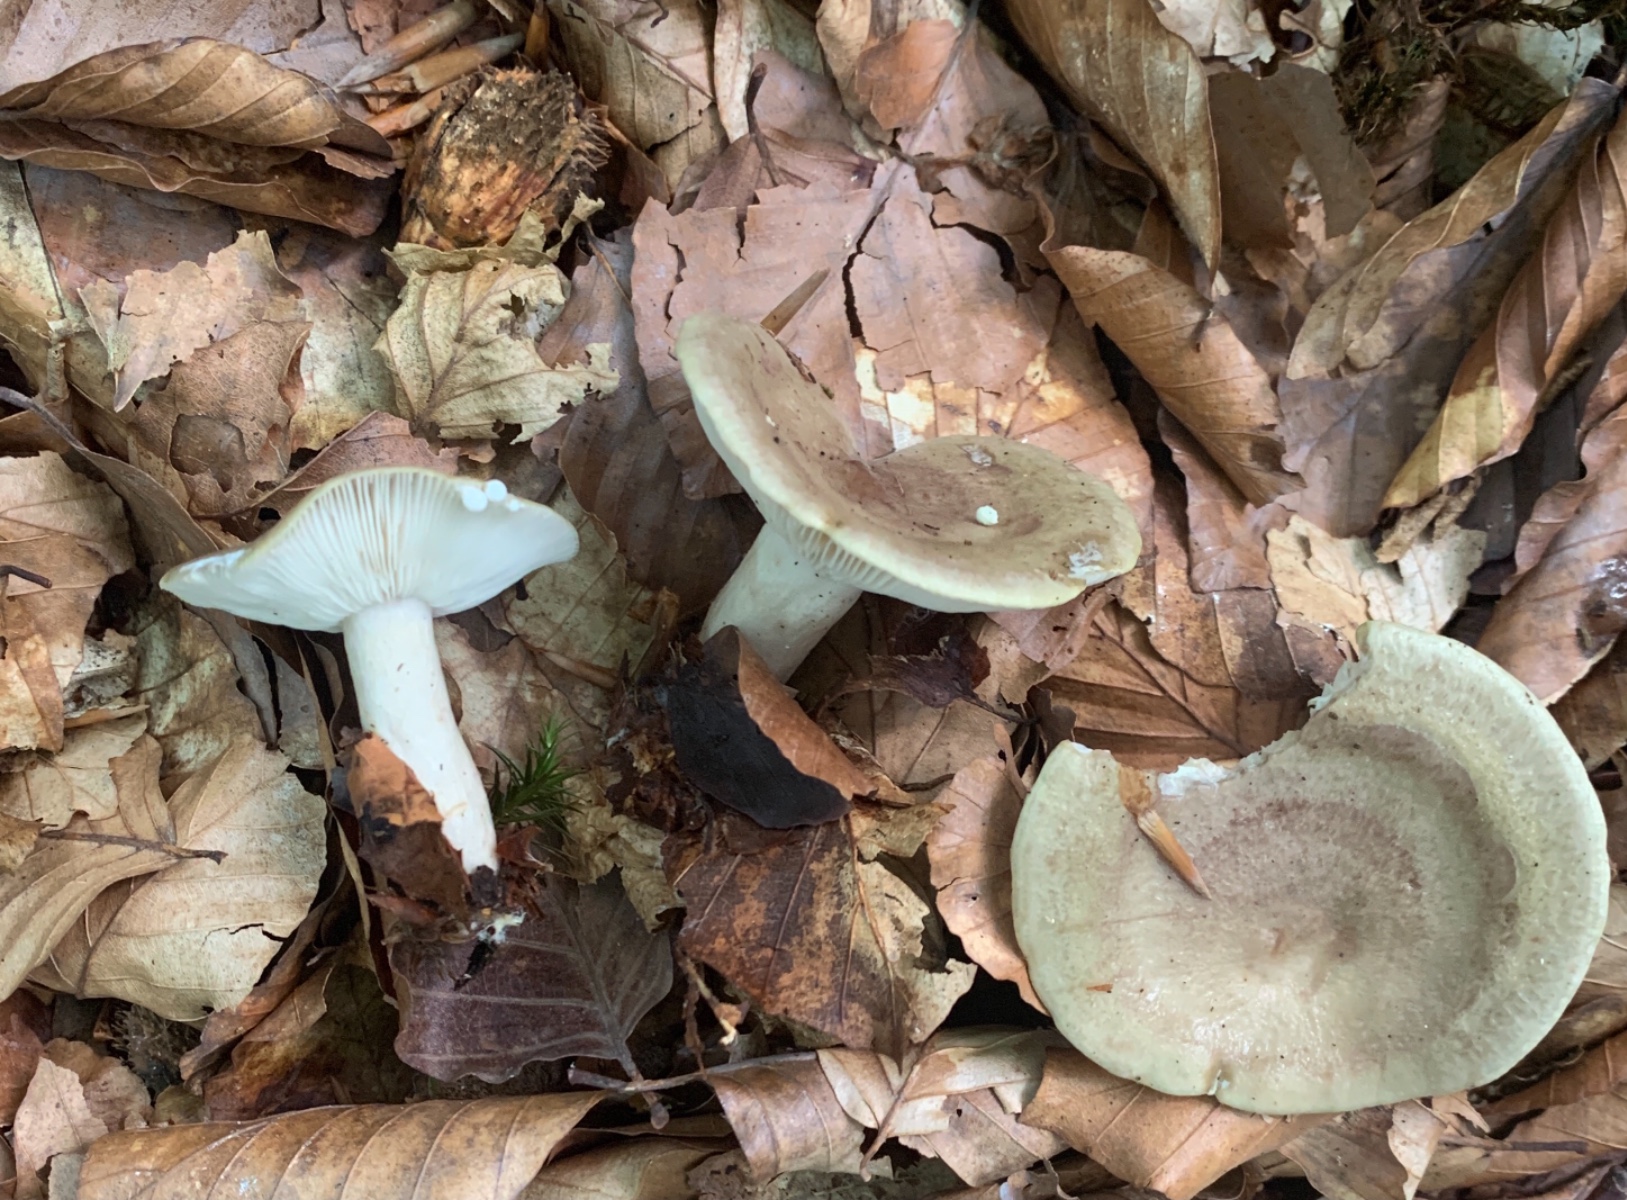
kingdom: Fungi
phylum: Basidiomycota
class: Agaricomycetes
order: Russulales
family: Russulaceae
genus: Lactarius
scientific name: Lactarius blennius
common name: dråbeplettet mælkehat
